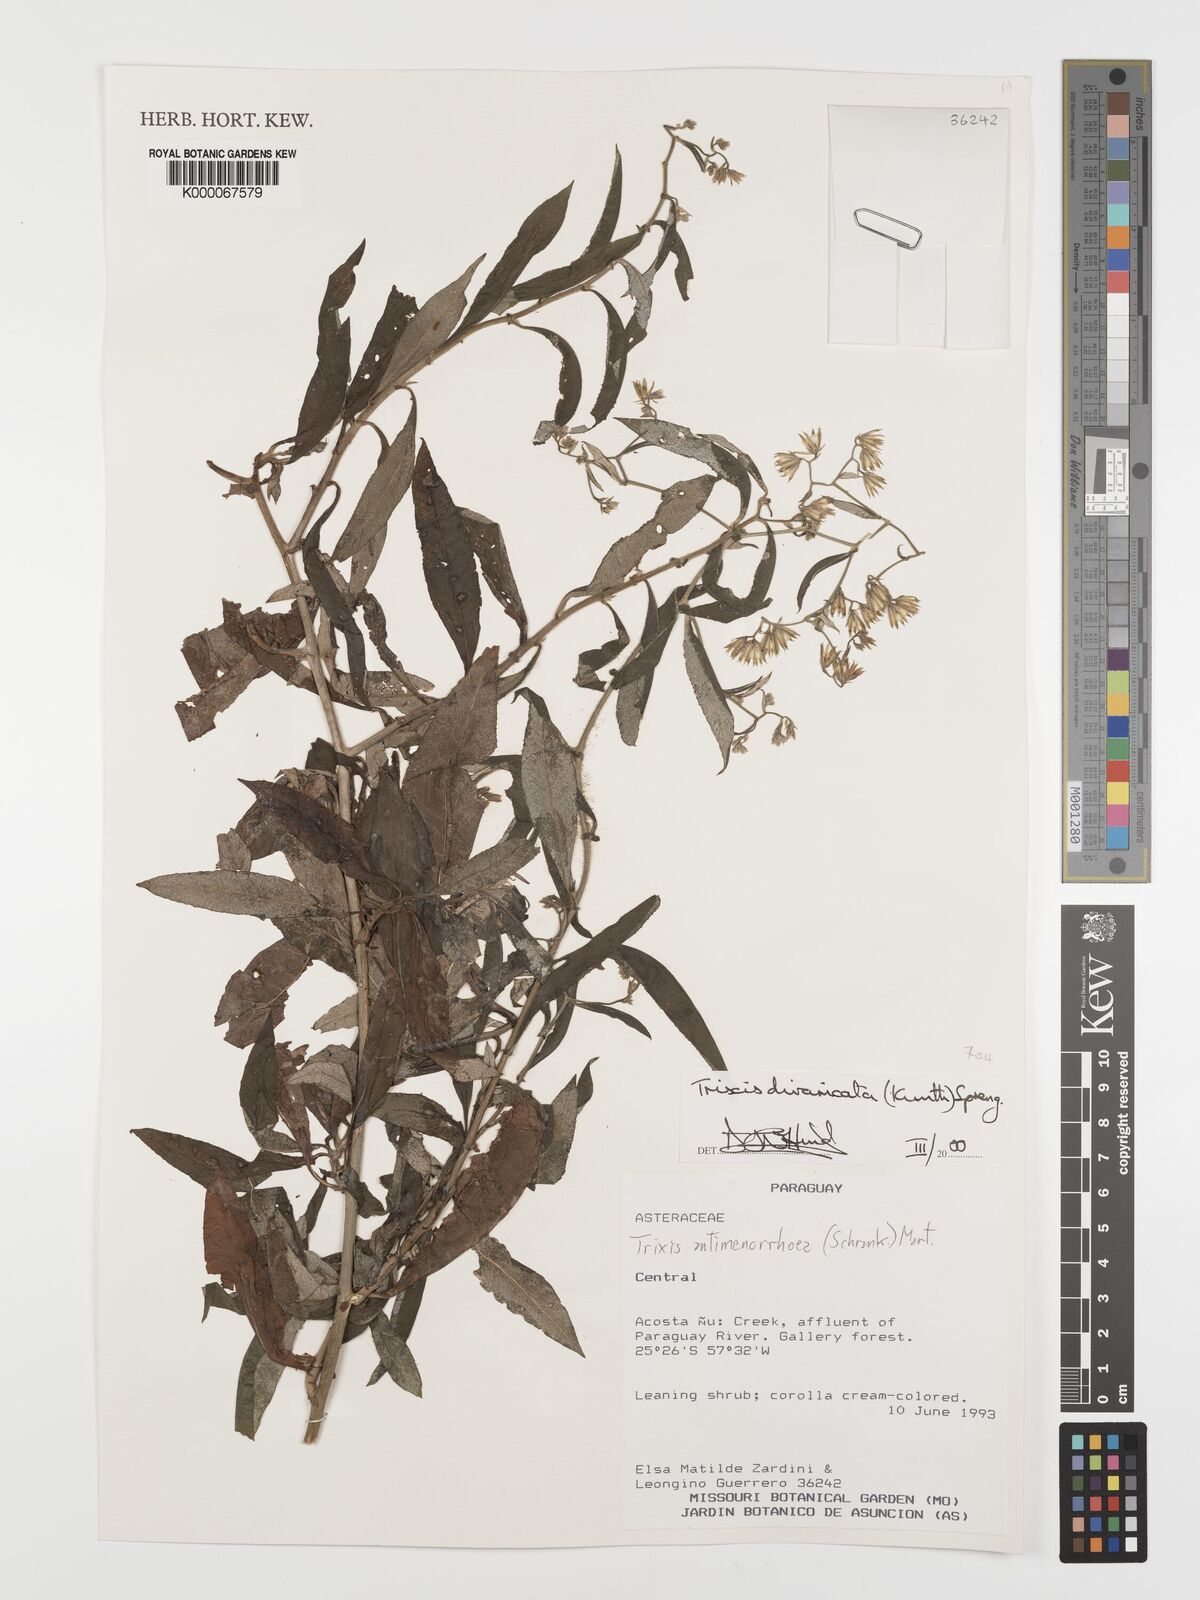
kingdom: Plantae
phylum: Tracheophyta
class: Magnoliopsida
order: Asterales
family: Asteraceae
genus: Trixis
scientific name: Trixis divaricata
